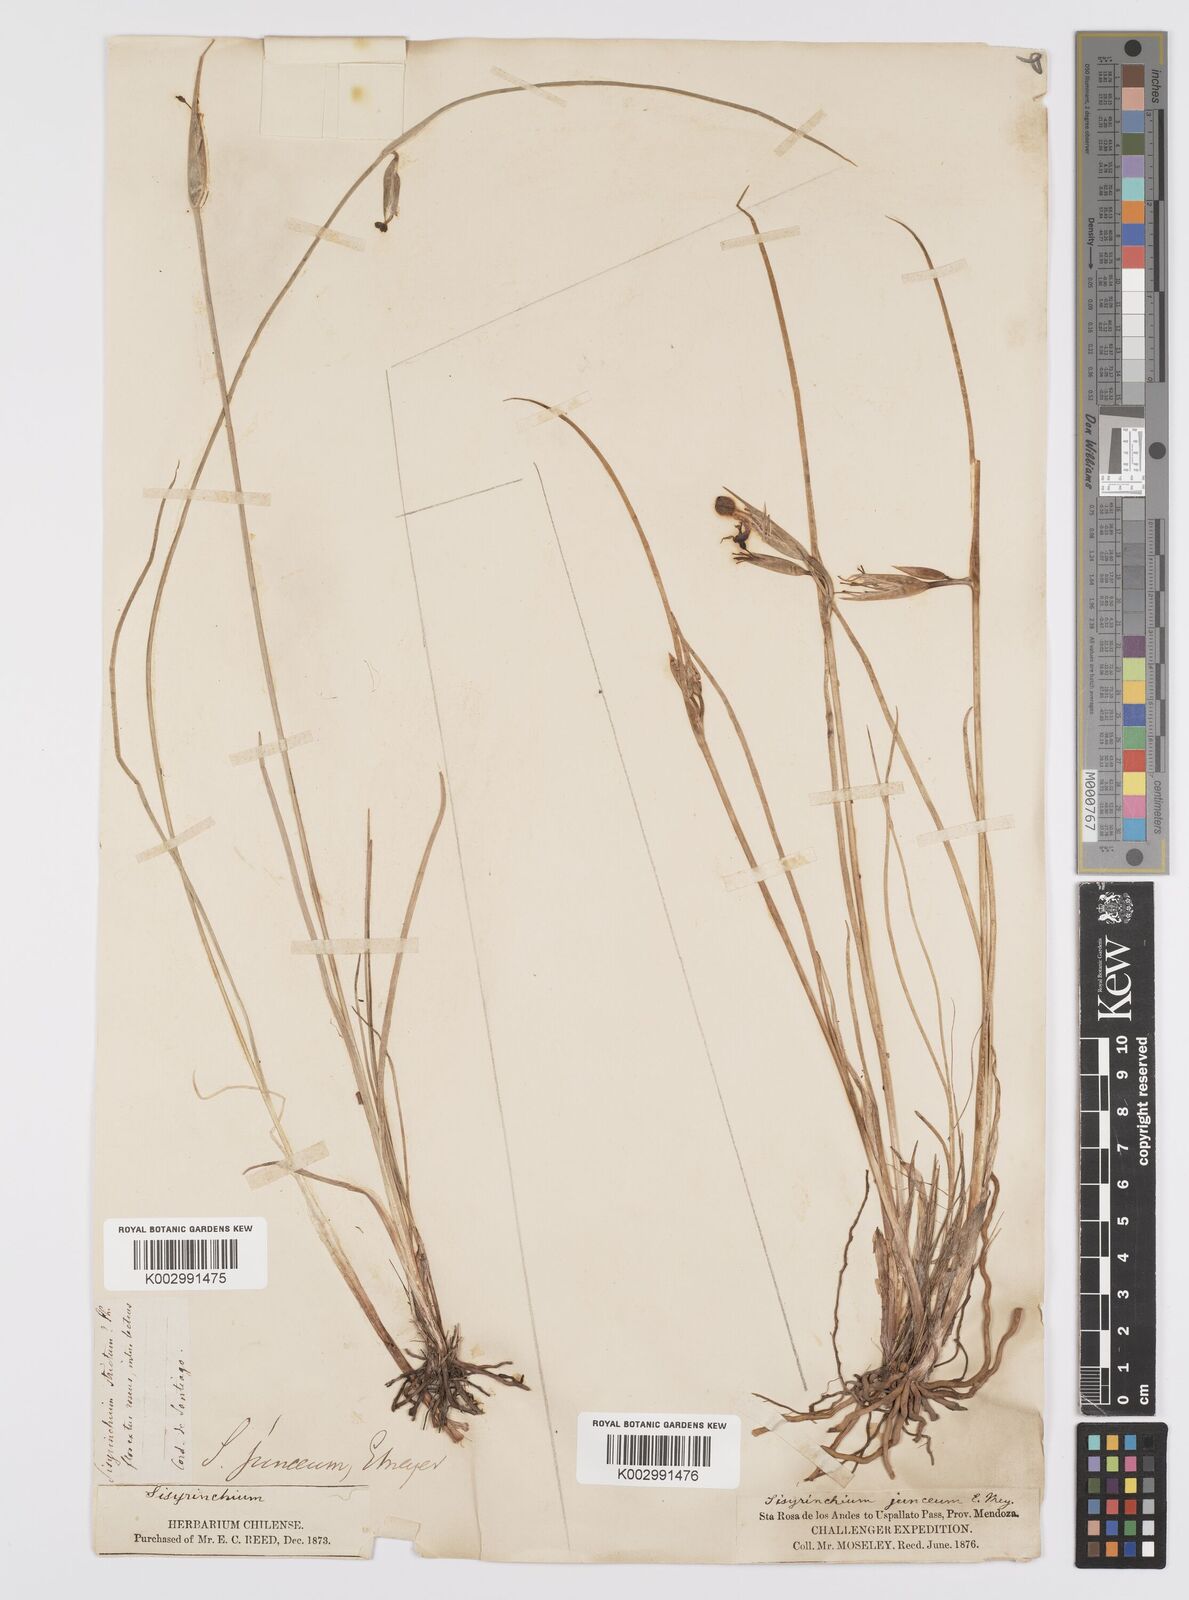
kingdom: Plantae
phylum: Tracheophyta
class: Liliopsida
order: Asparagales
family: Iridaceae
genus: Olsynium
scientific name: Olsynium junceum
